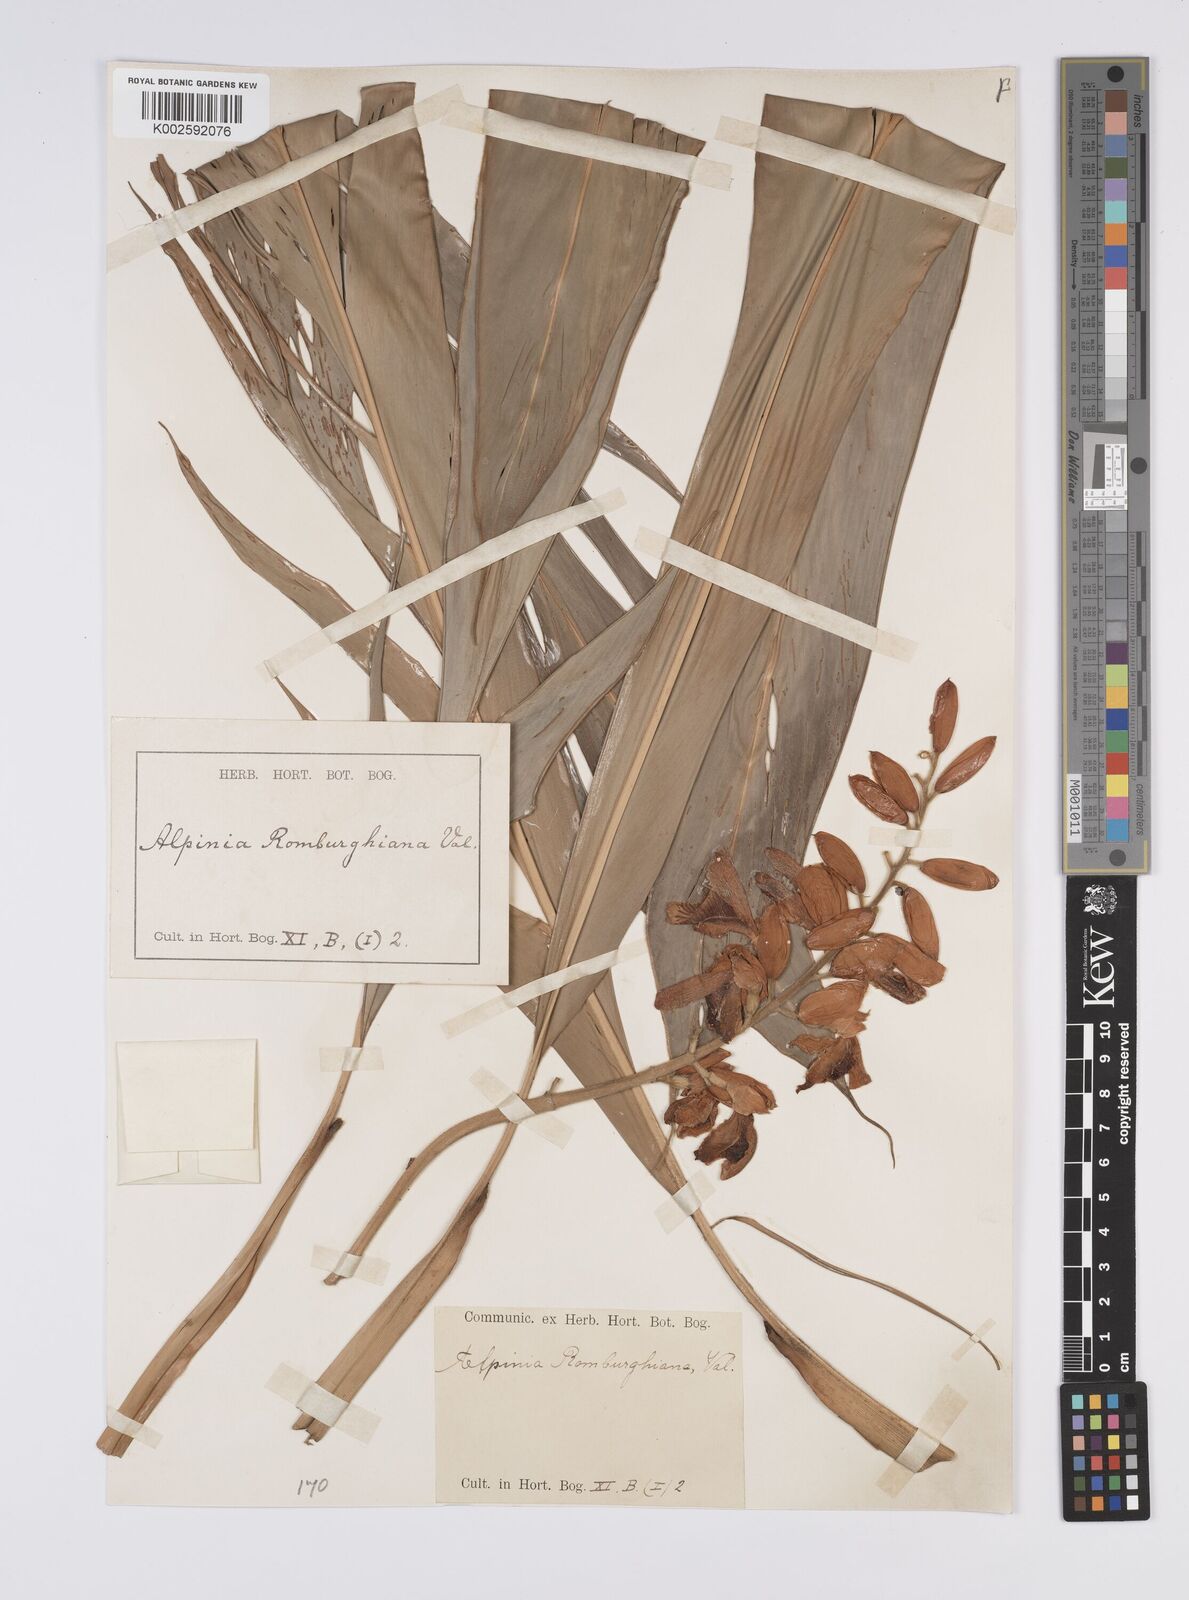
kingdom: Plantae
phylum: Tracheophyta
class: Liliopsida
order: Zingiberales
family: Zingiberaceae
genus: Alpinia
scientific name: Alpinia romburghiana
